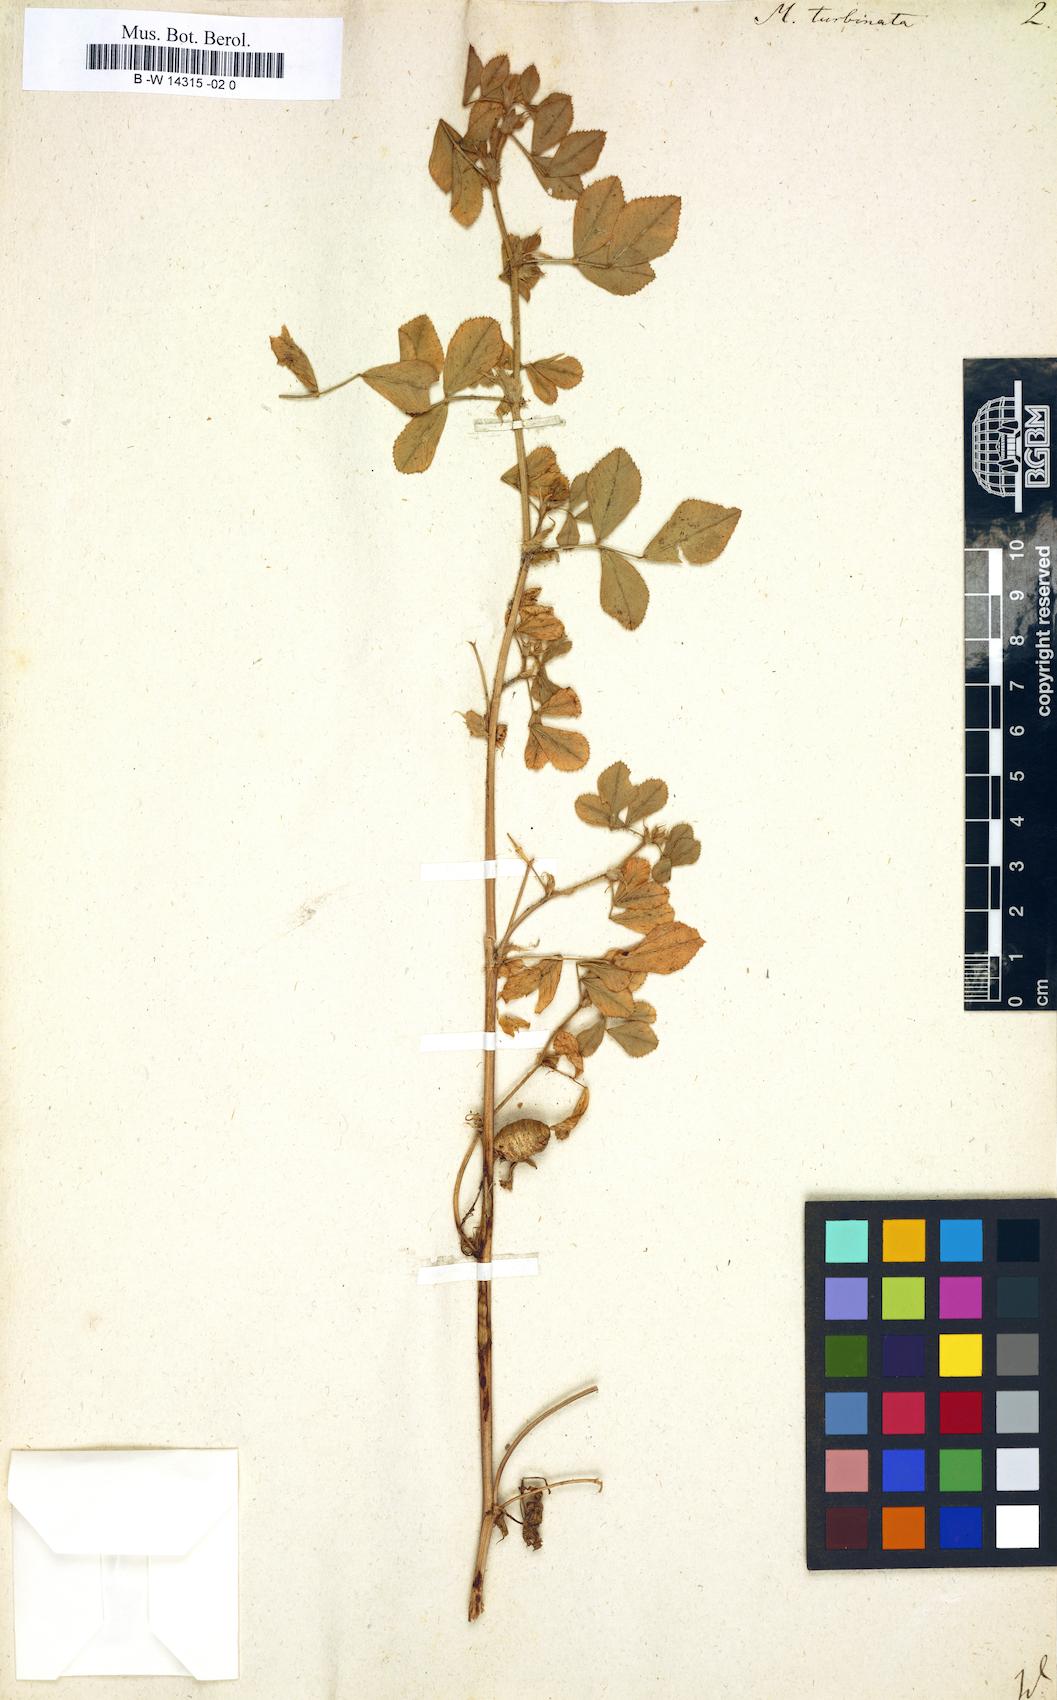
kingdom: Plantae
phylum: Tracheophyta
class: Magnoliopsida
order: Fabales
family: Fabaceae
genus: Medicago
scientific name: Medicago doliata
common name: Keg medic
